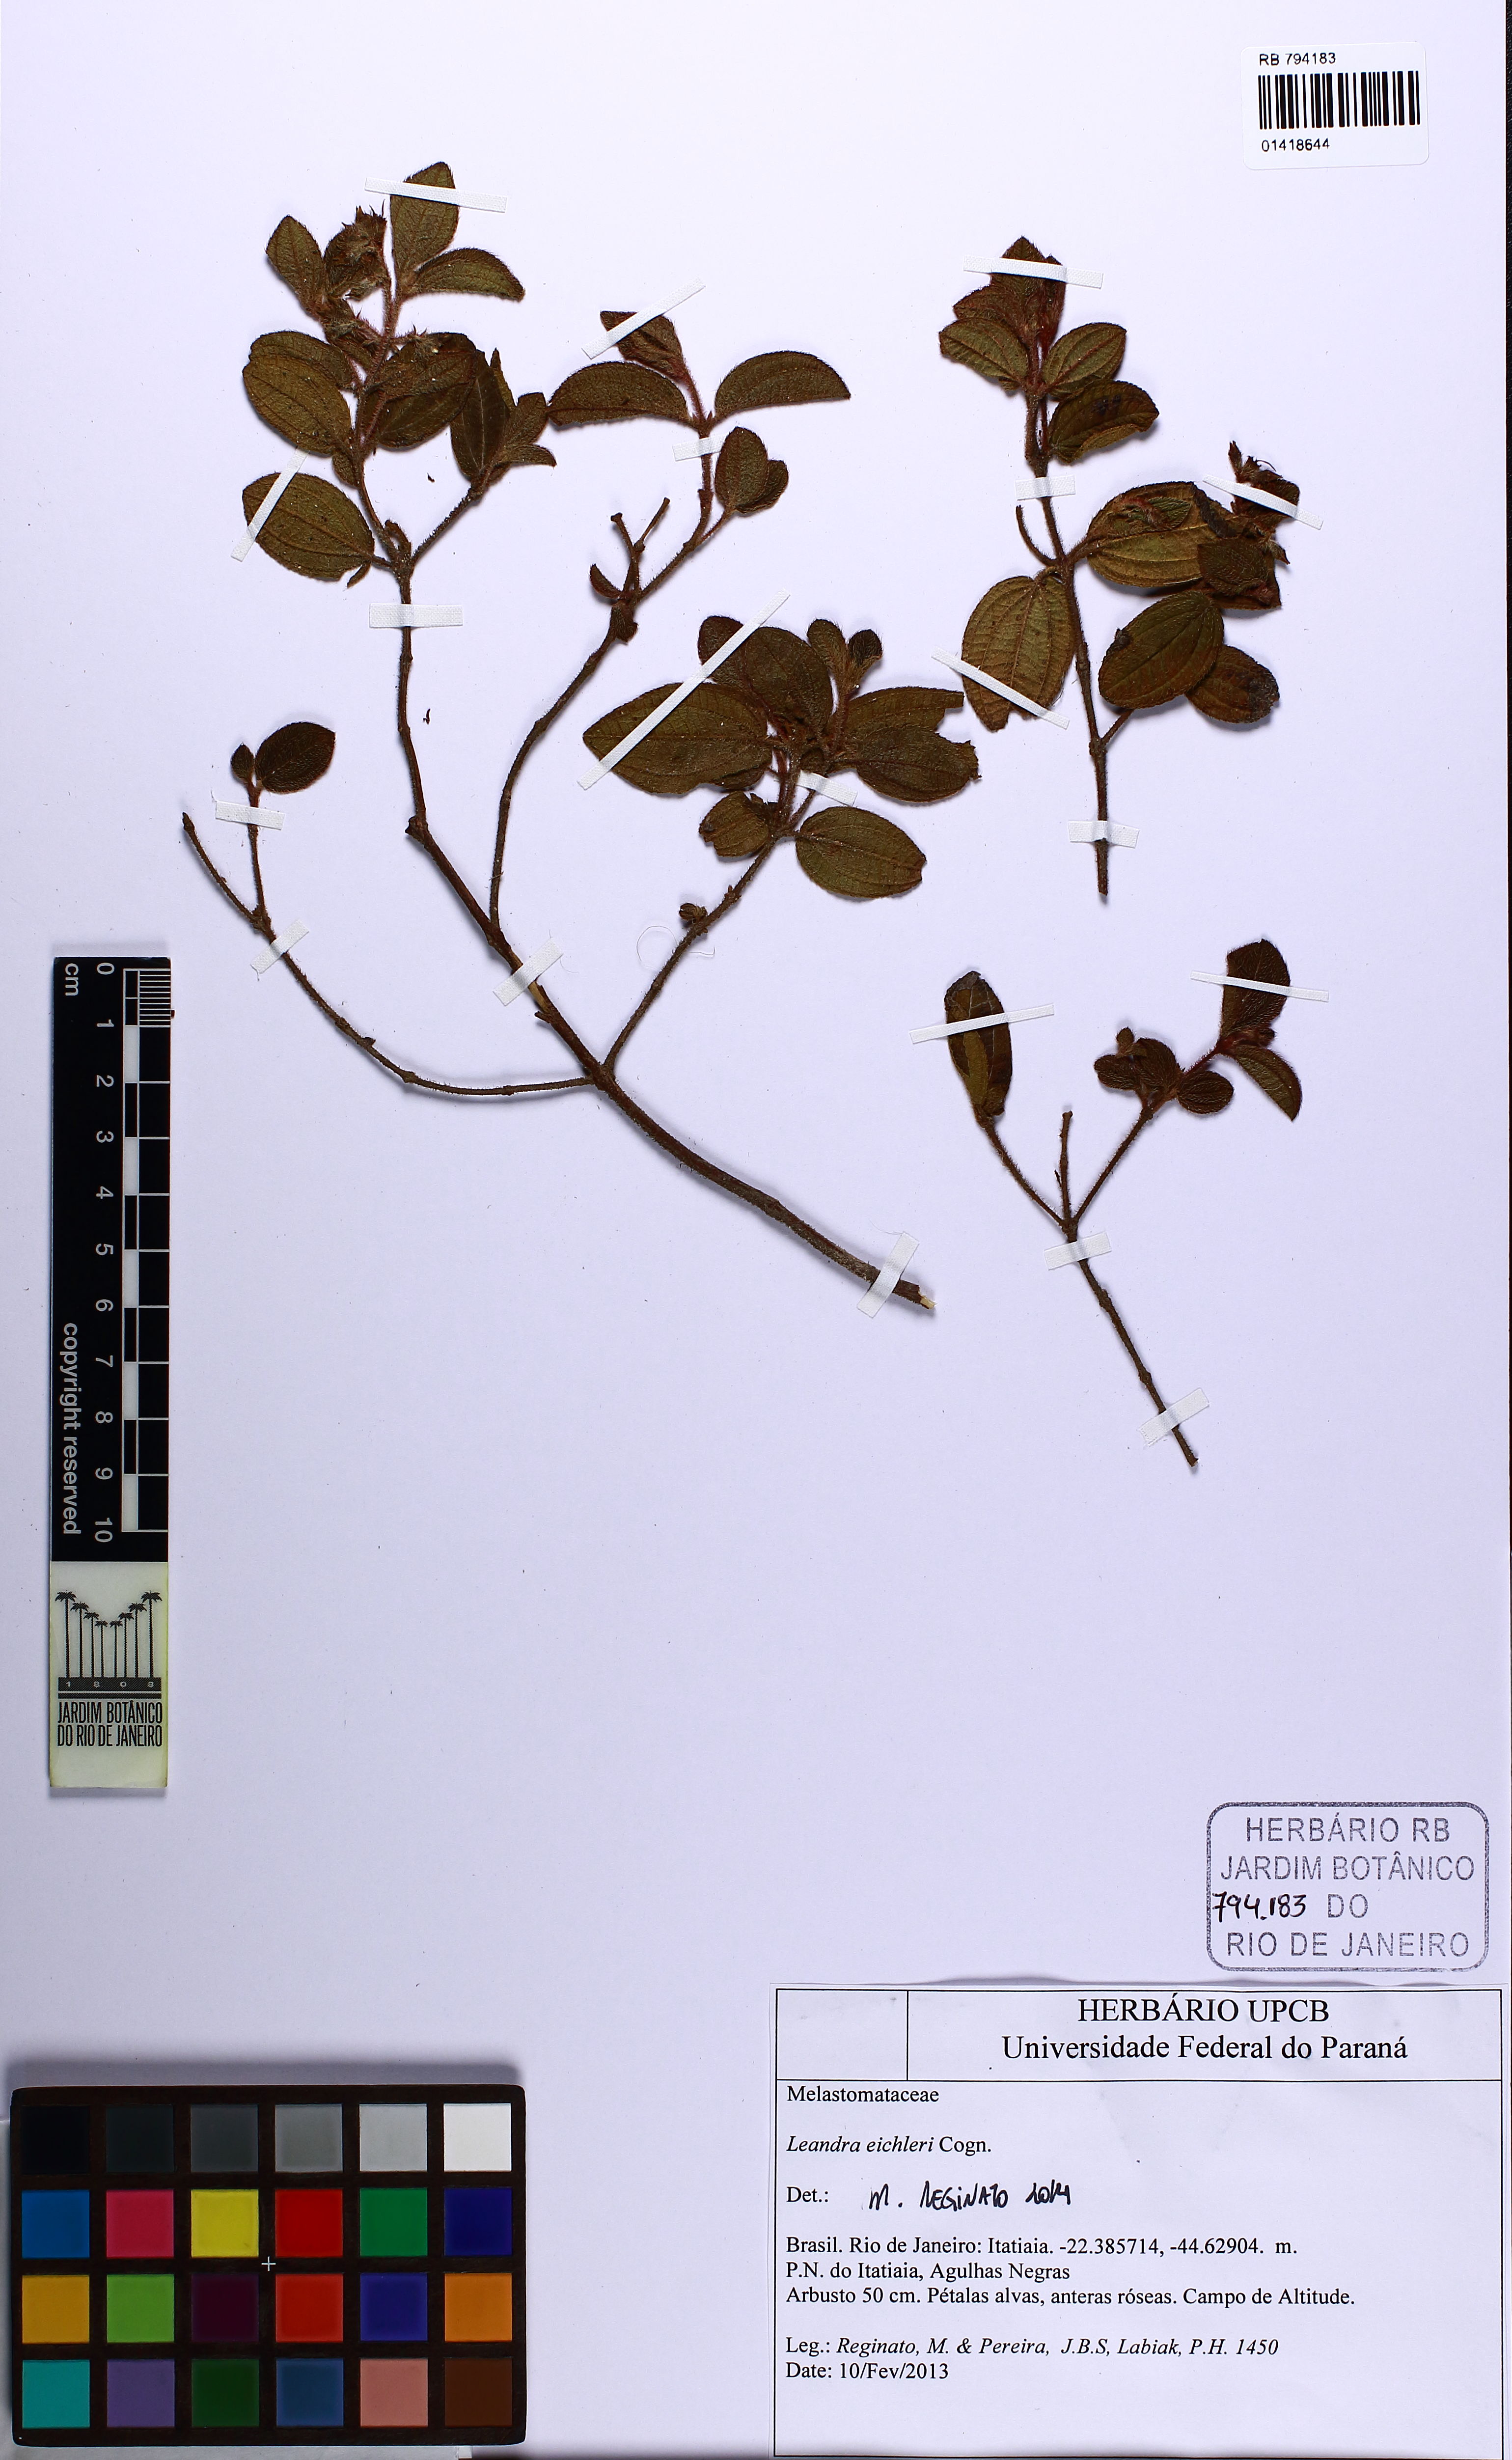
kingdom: Plantae
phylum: Tracheophyta
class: Magnoliopsida
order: Myrtales
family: Melastomataceae
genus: Miconia
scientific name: Miconia leaeichleri
